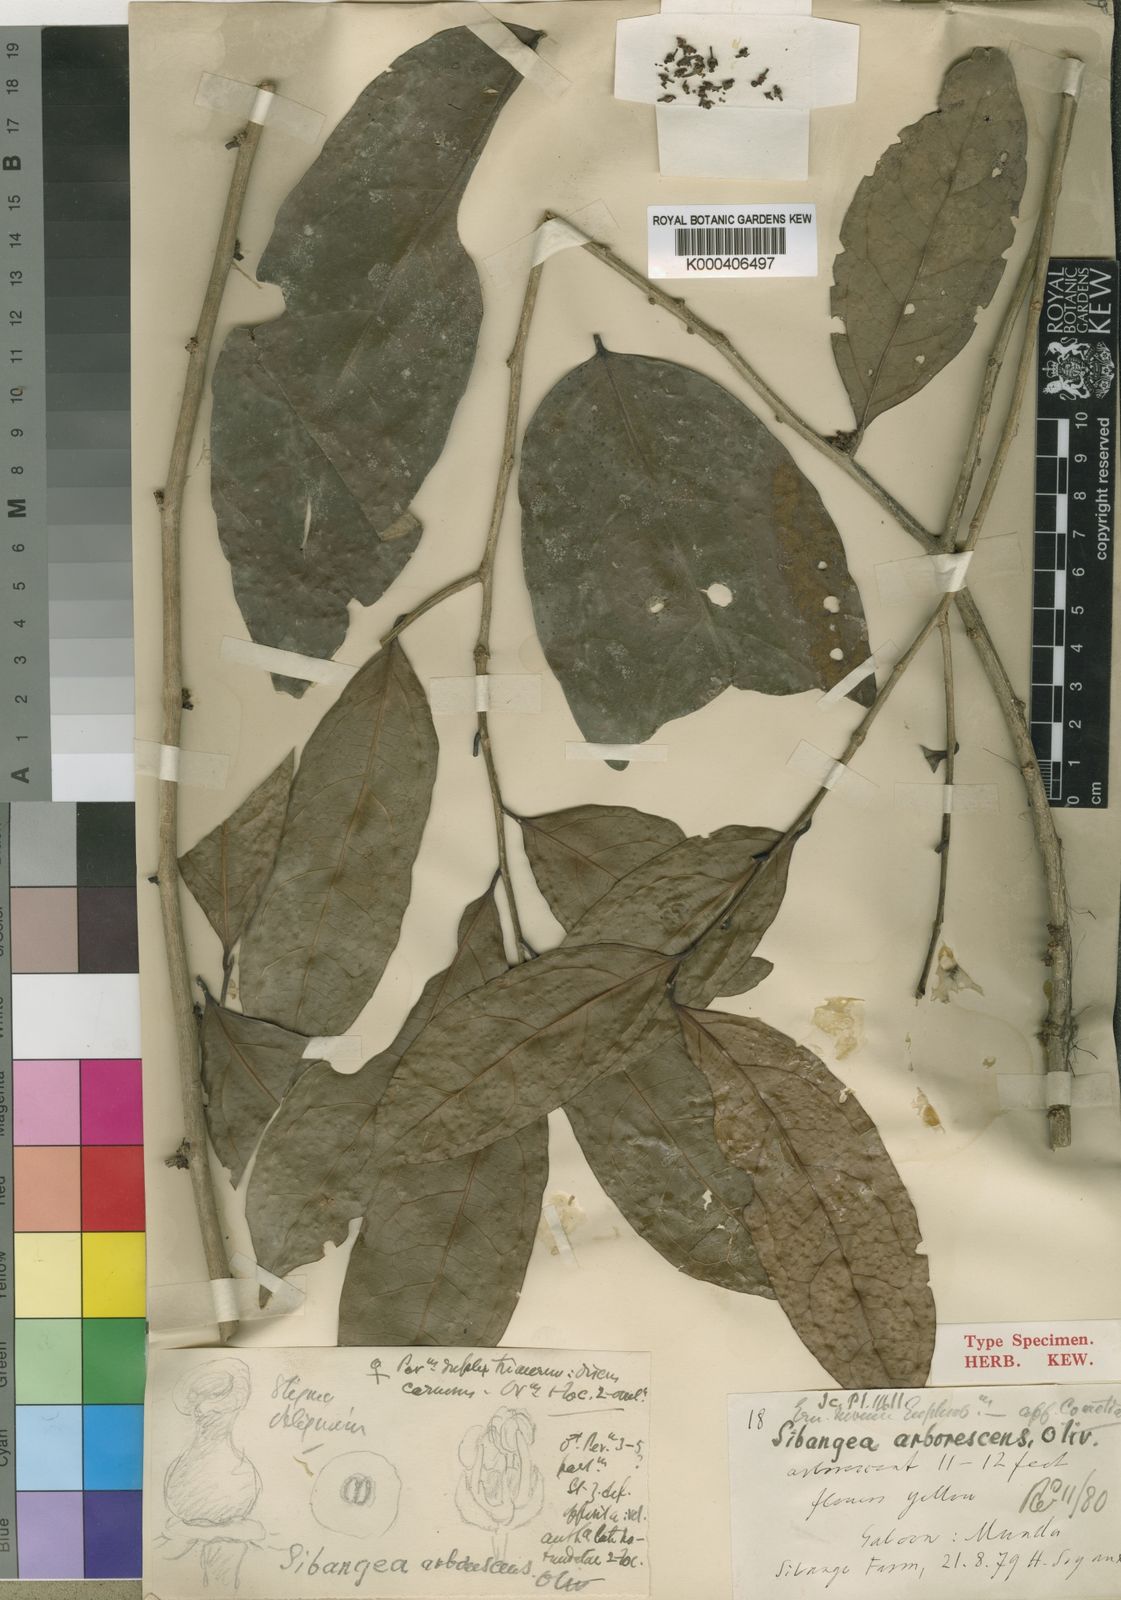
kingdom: Plantae
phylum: Tracheophyta
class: Magnoliopsida
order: Malpighiales
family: Putranjivaceae
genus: Drypetes
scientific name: Drypetes arborescens
